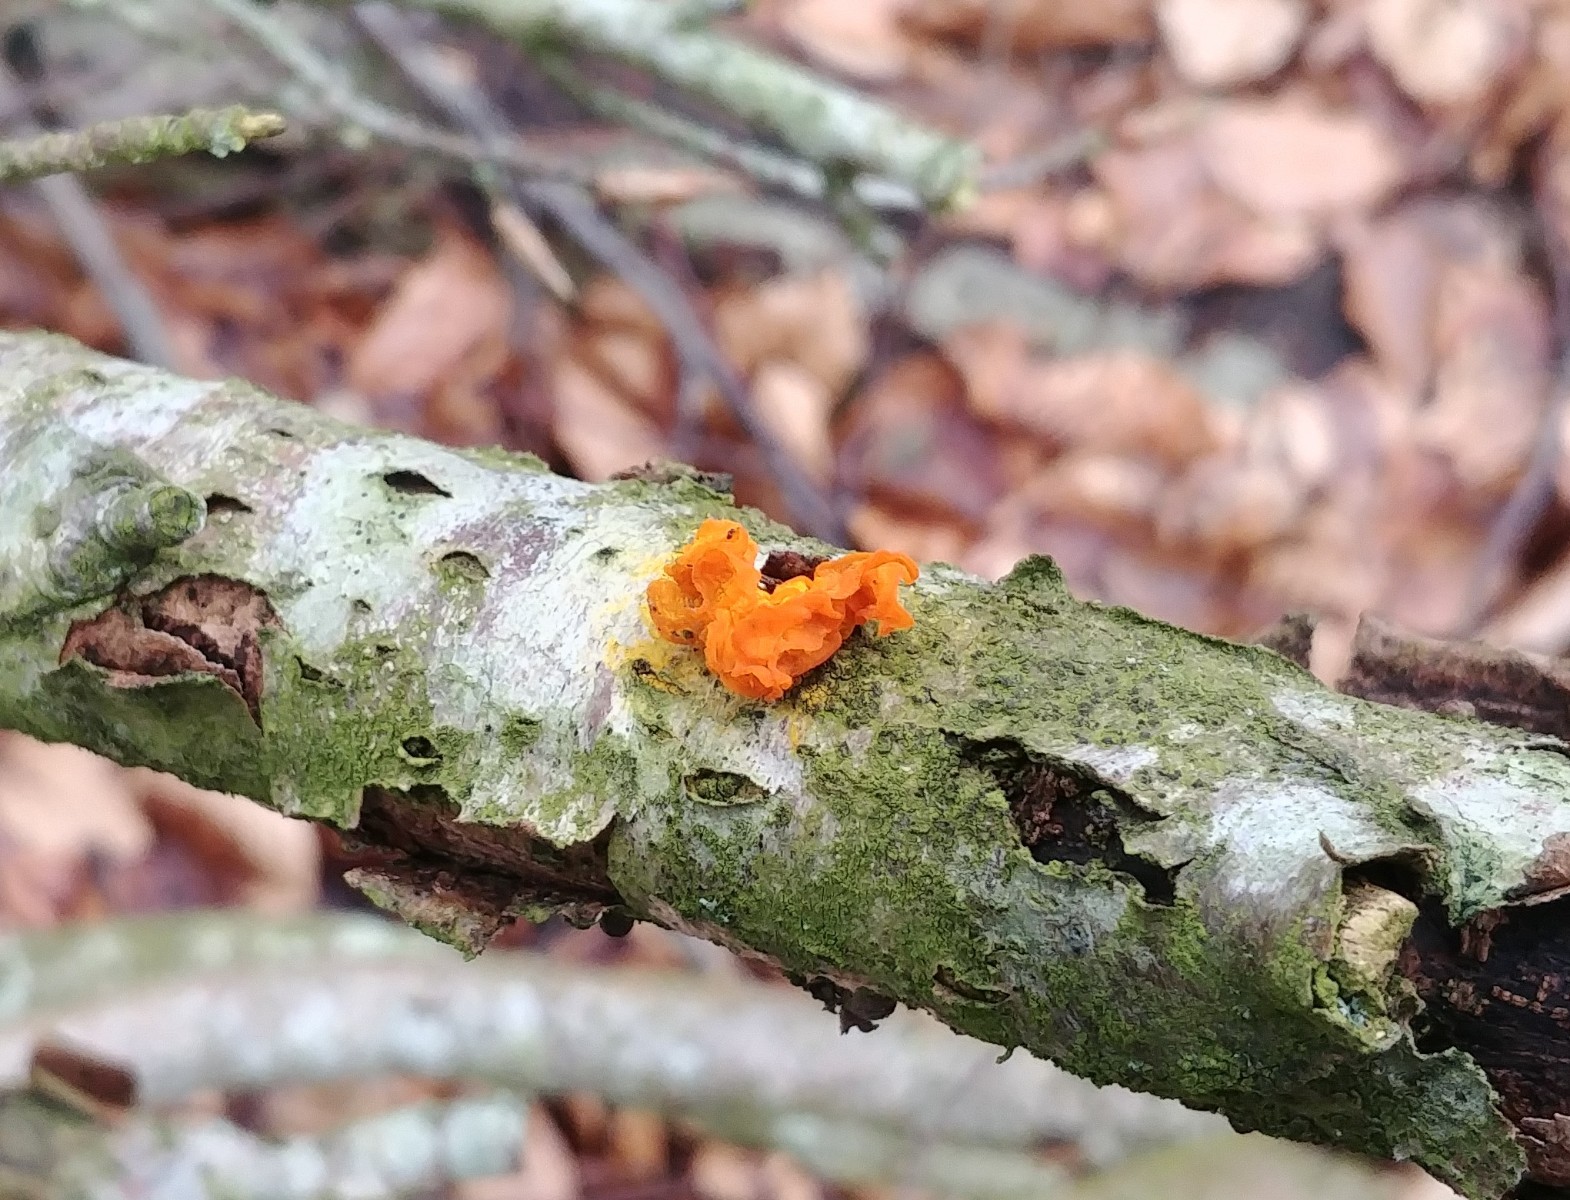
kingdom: Fungi
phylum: Basidiomycota
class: Tremellomycetes
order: Tremellales
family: Tremellaceae
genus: Tremella
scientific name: Tremella mesenterica
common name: gul bævresvamp
